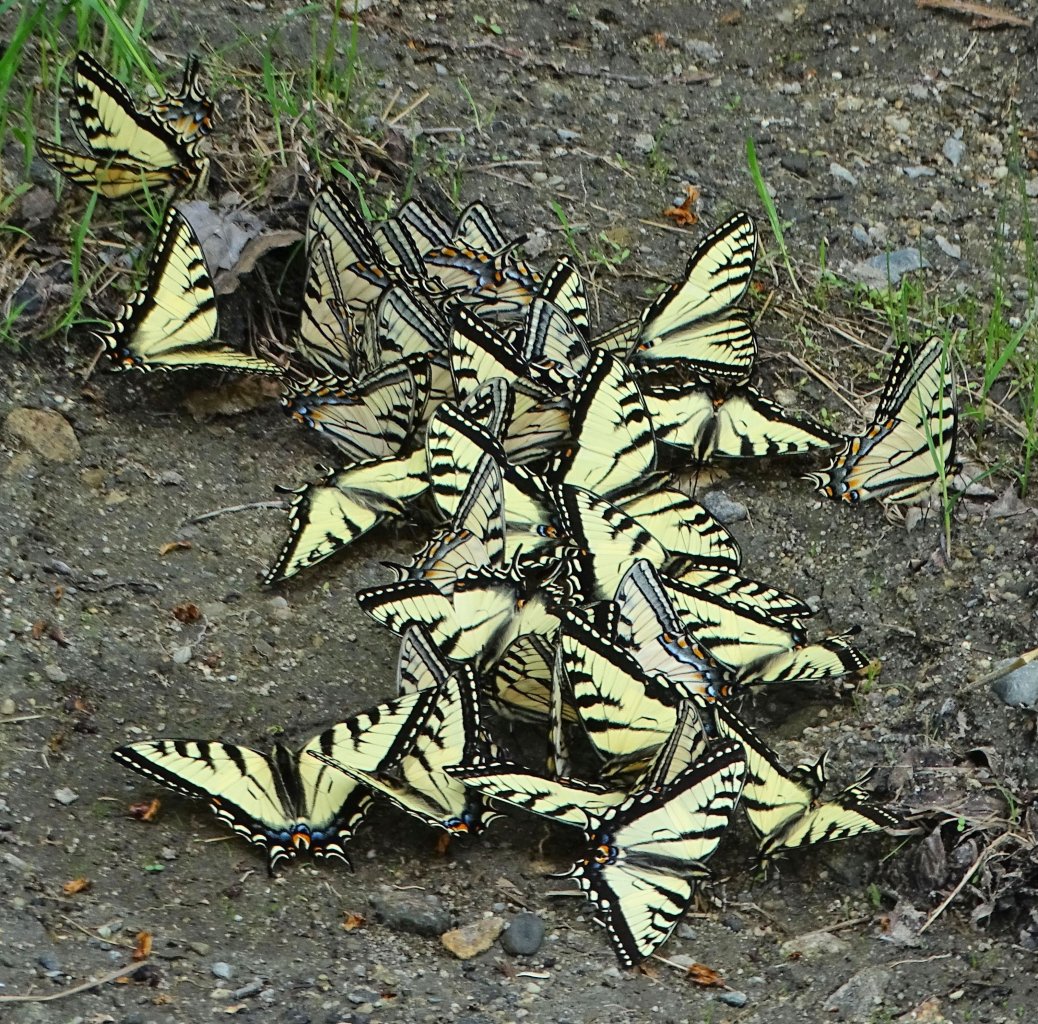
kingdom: Animalia
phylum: Arthropoda
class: Insecta
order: Lepidoptera
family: Papilionidae
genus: Pterourus
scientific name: Pterourus canadensis
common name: Canadian Tiger Swallowtail
